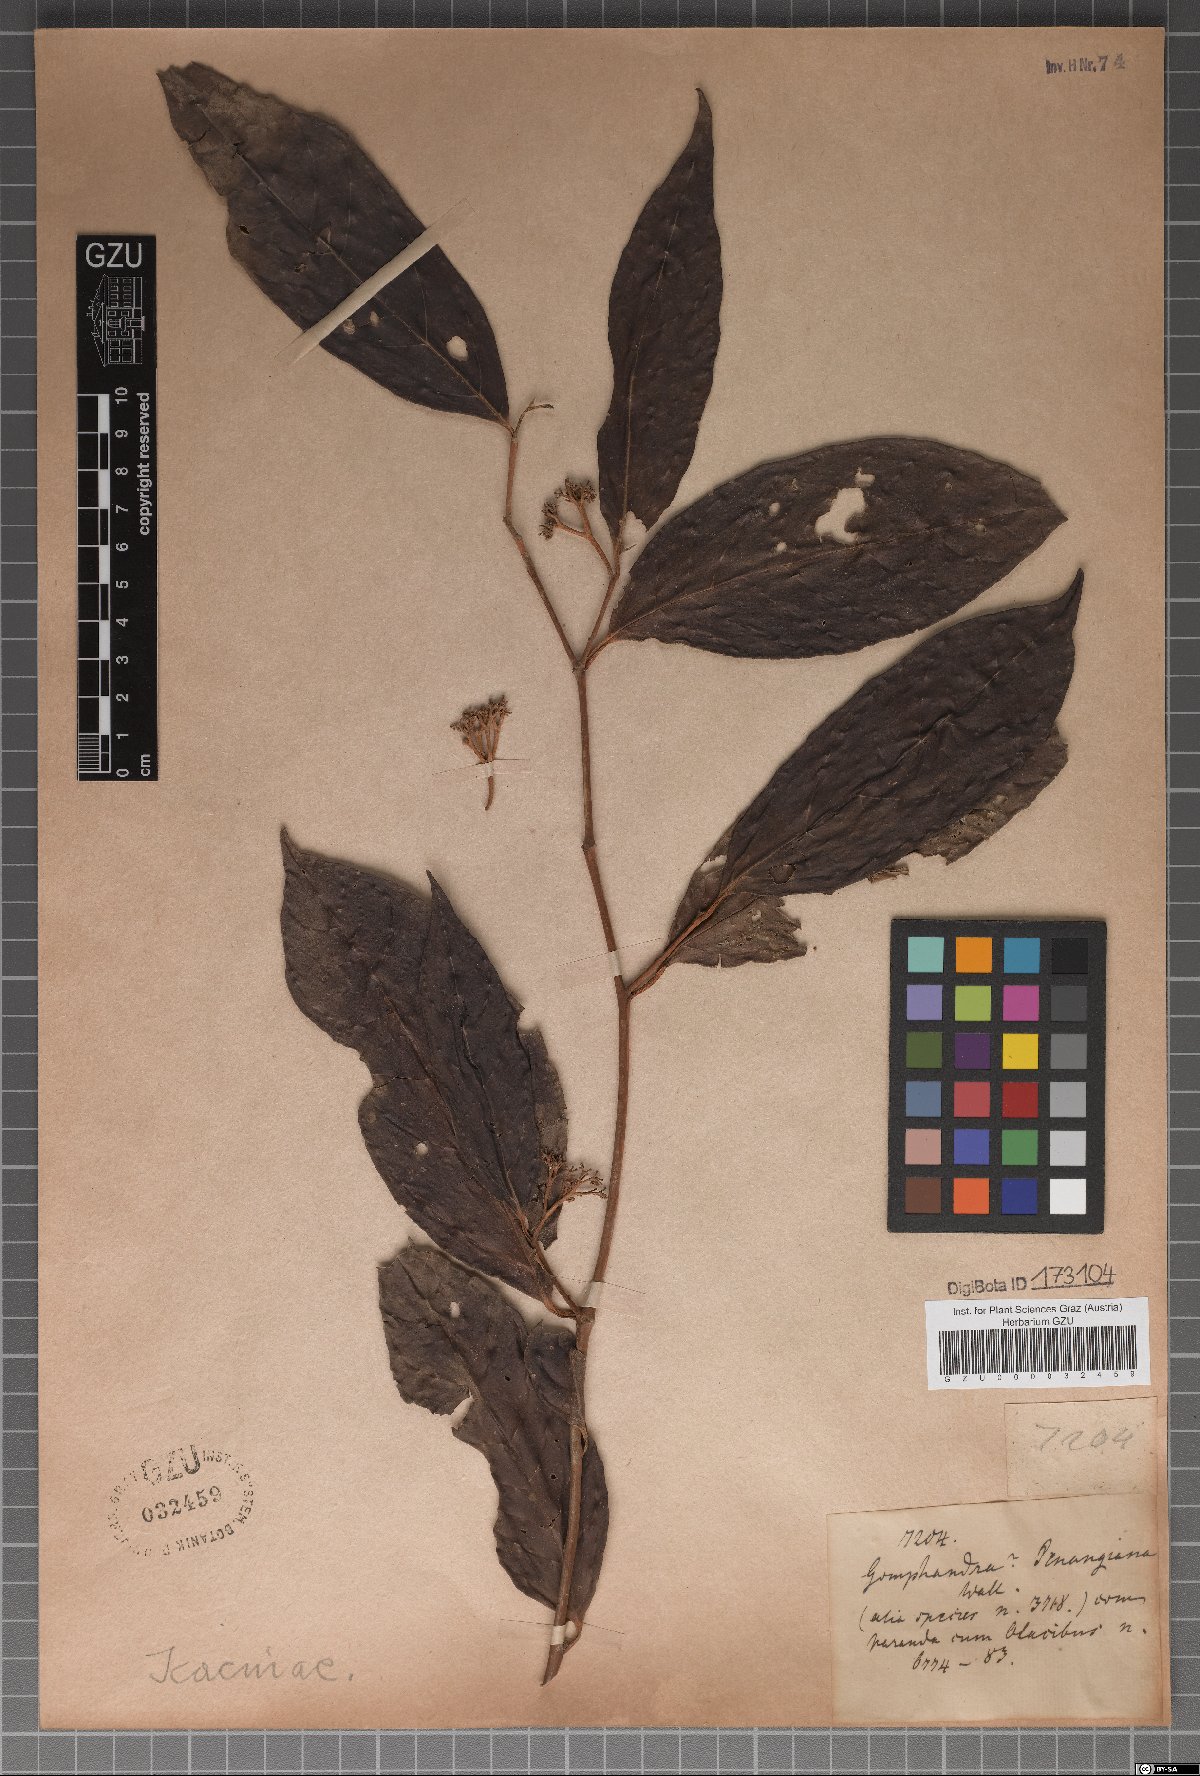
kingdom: Plantae
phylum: Tracheophyta
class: Magnoliopsida
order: Cardiopteridales
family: Stemonuraceae
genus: Gomphandra
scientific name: Gomphandra penangiana
